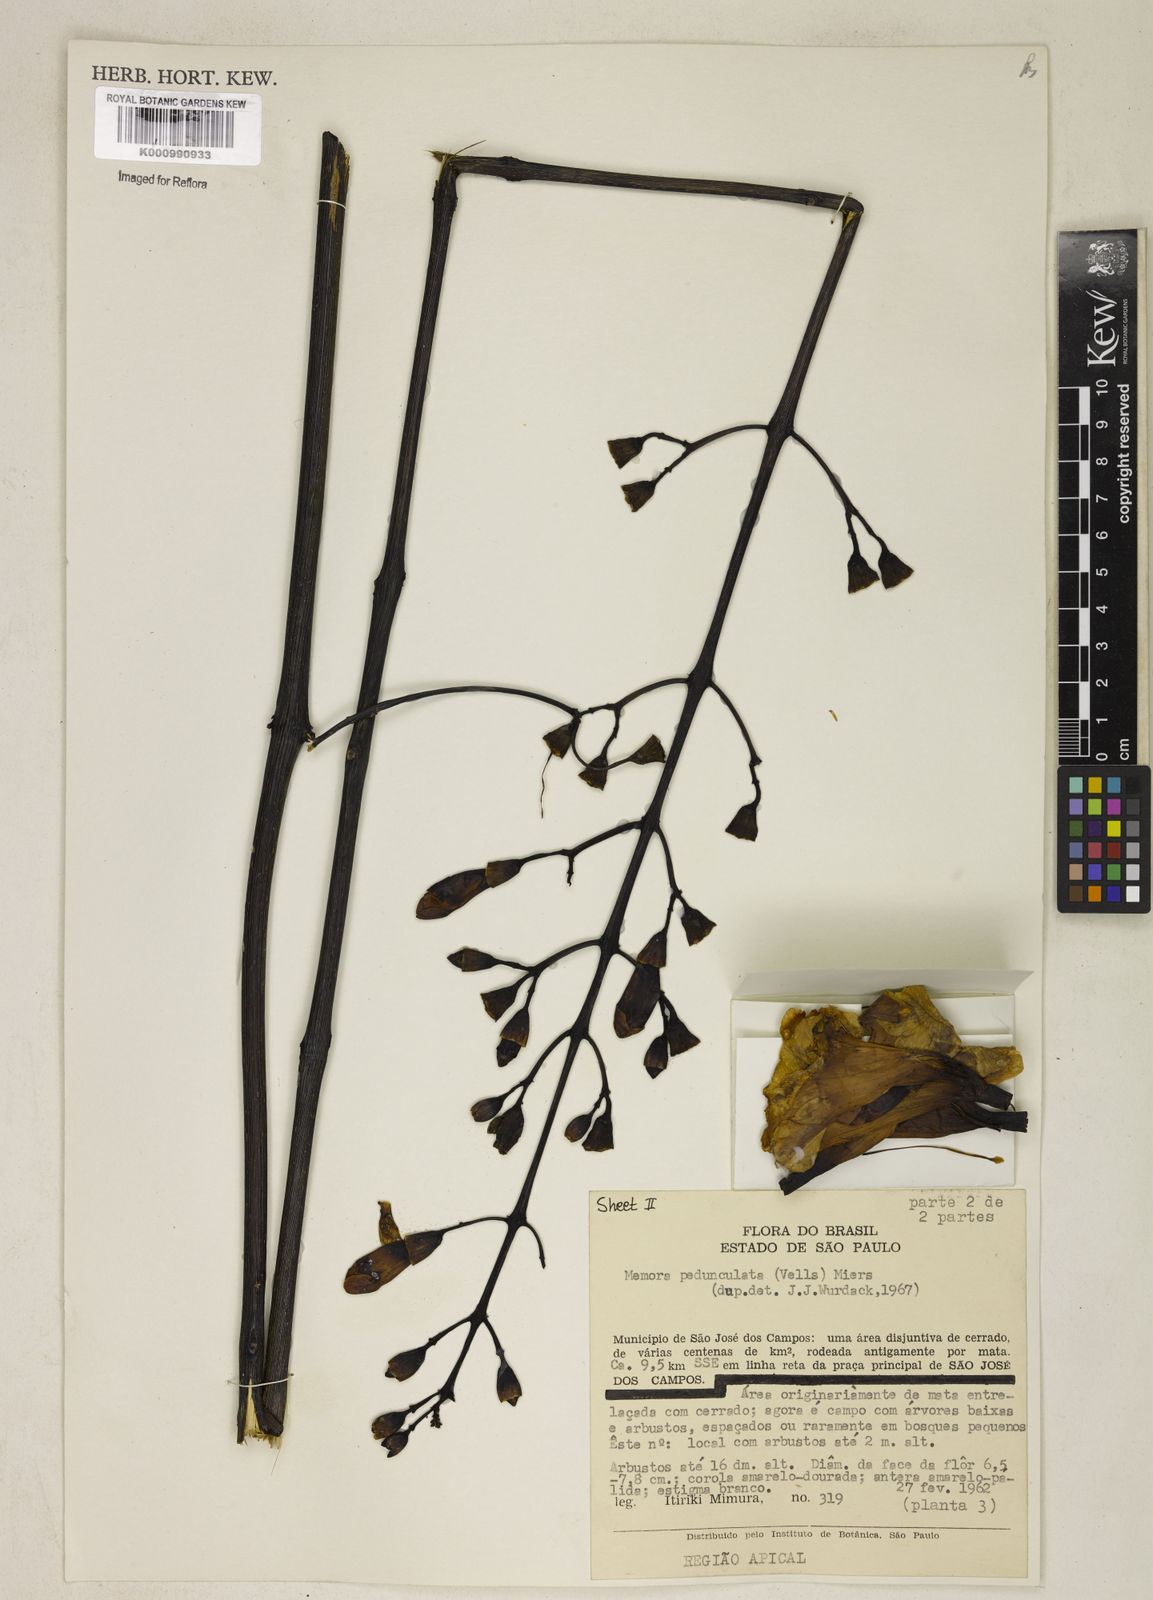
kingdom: Plantae
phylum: Tracheophyta
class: Magnoliopsida
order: Lamiales
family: Bignoniaceae
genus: Adenocalymma
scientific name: Adenocalymma pedunculatum
